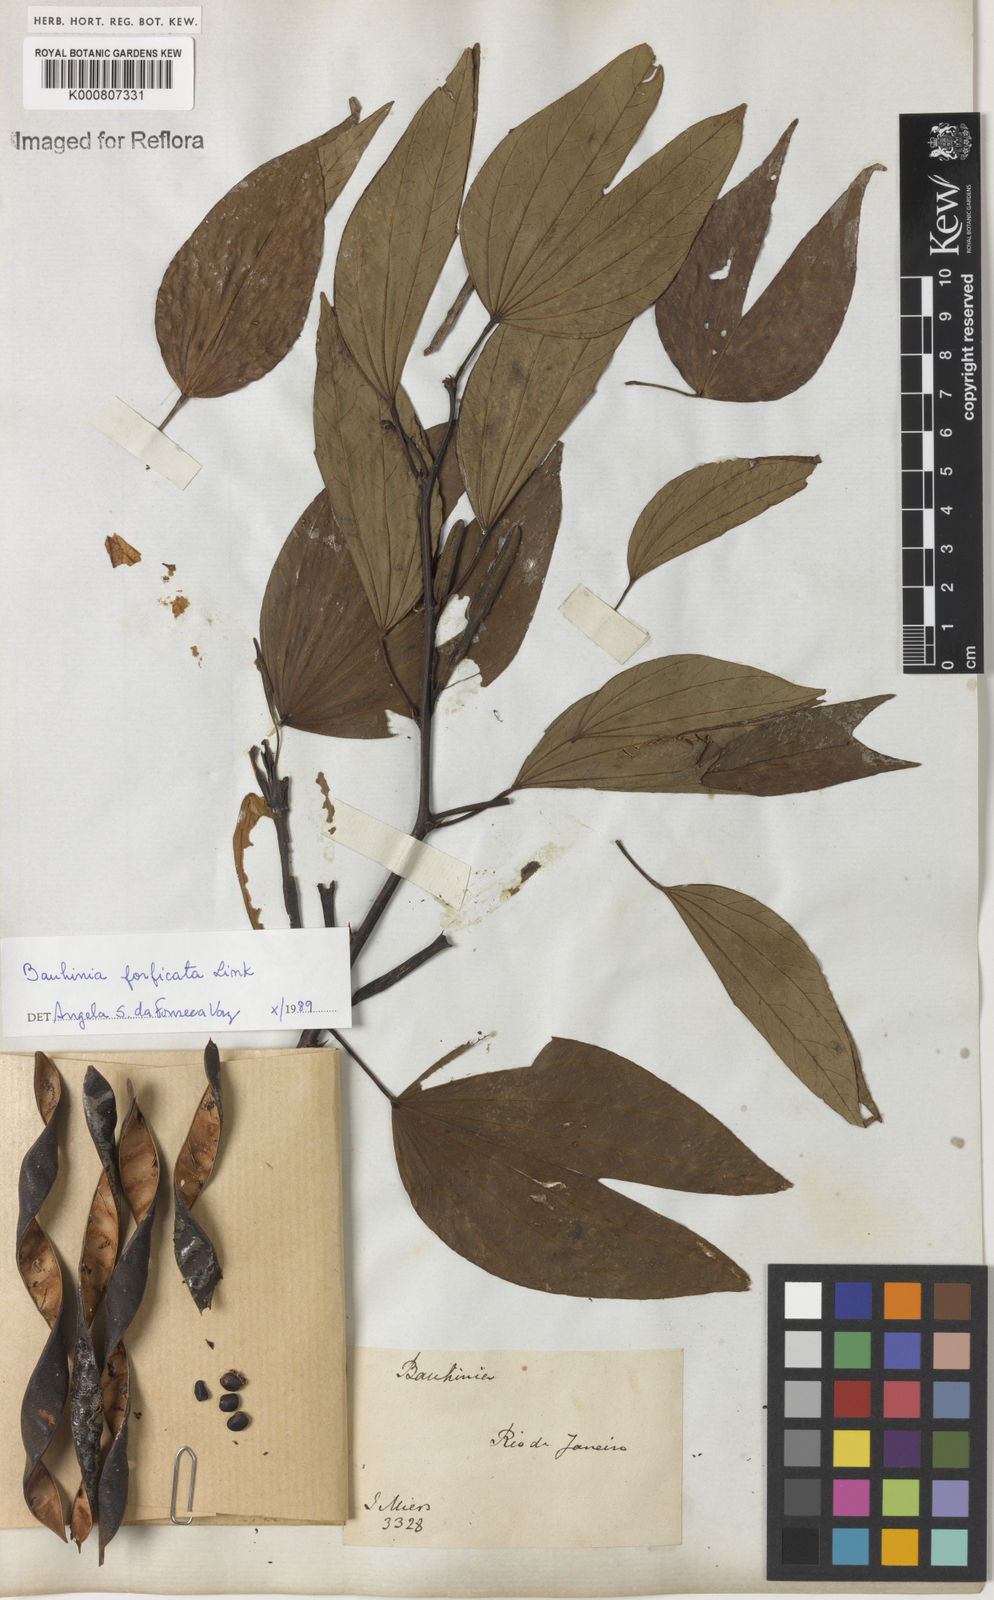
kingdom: Plantae
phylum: Tracheophyta
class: Magnoliopsida
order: Fabales
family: Fabaceae
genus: Bauhinia
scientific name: Bauhinia forficata
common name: Orchid tree
